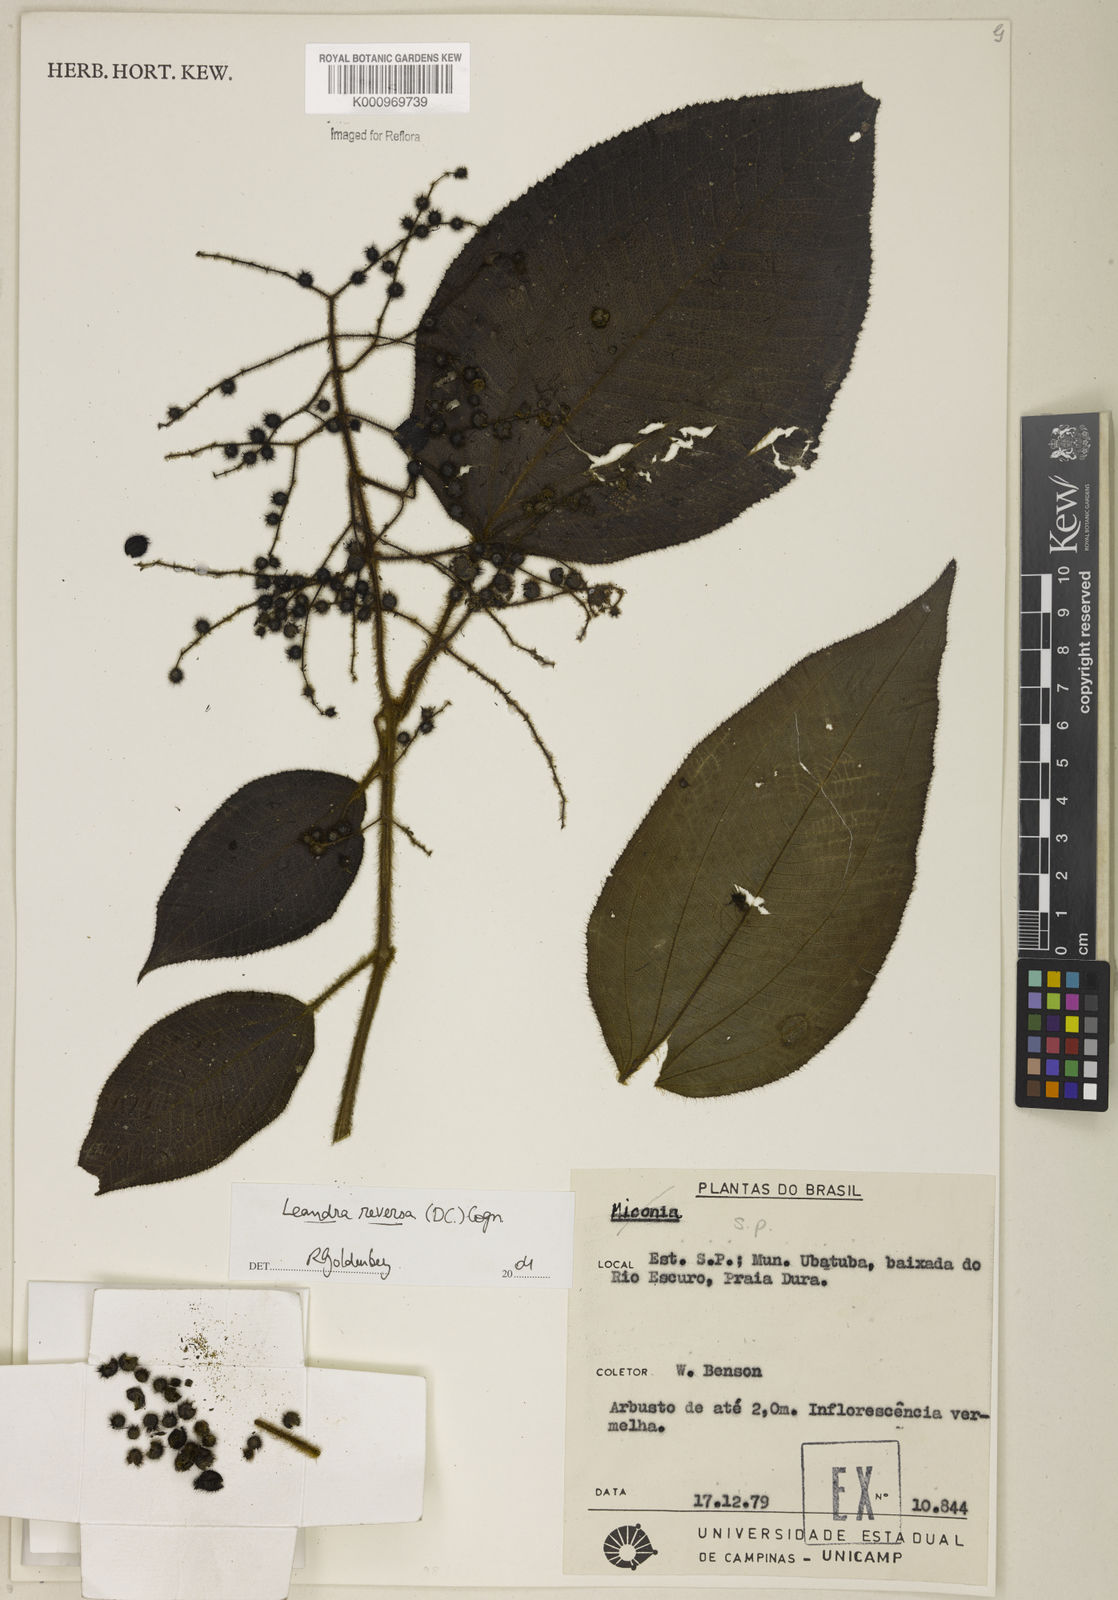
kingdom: Plantae
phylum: Tracheophyta
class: Magnoliopsida
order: Myrtales
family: Melastomataceae
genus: Miconia
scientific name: Miconia reversa
